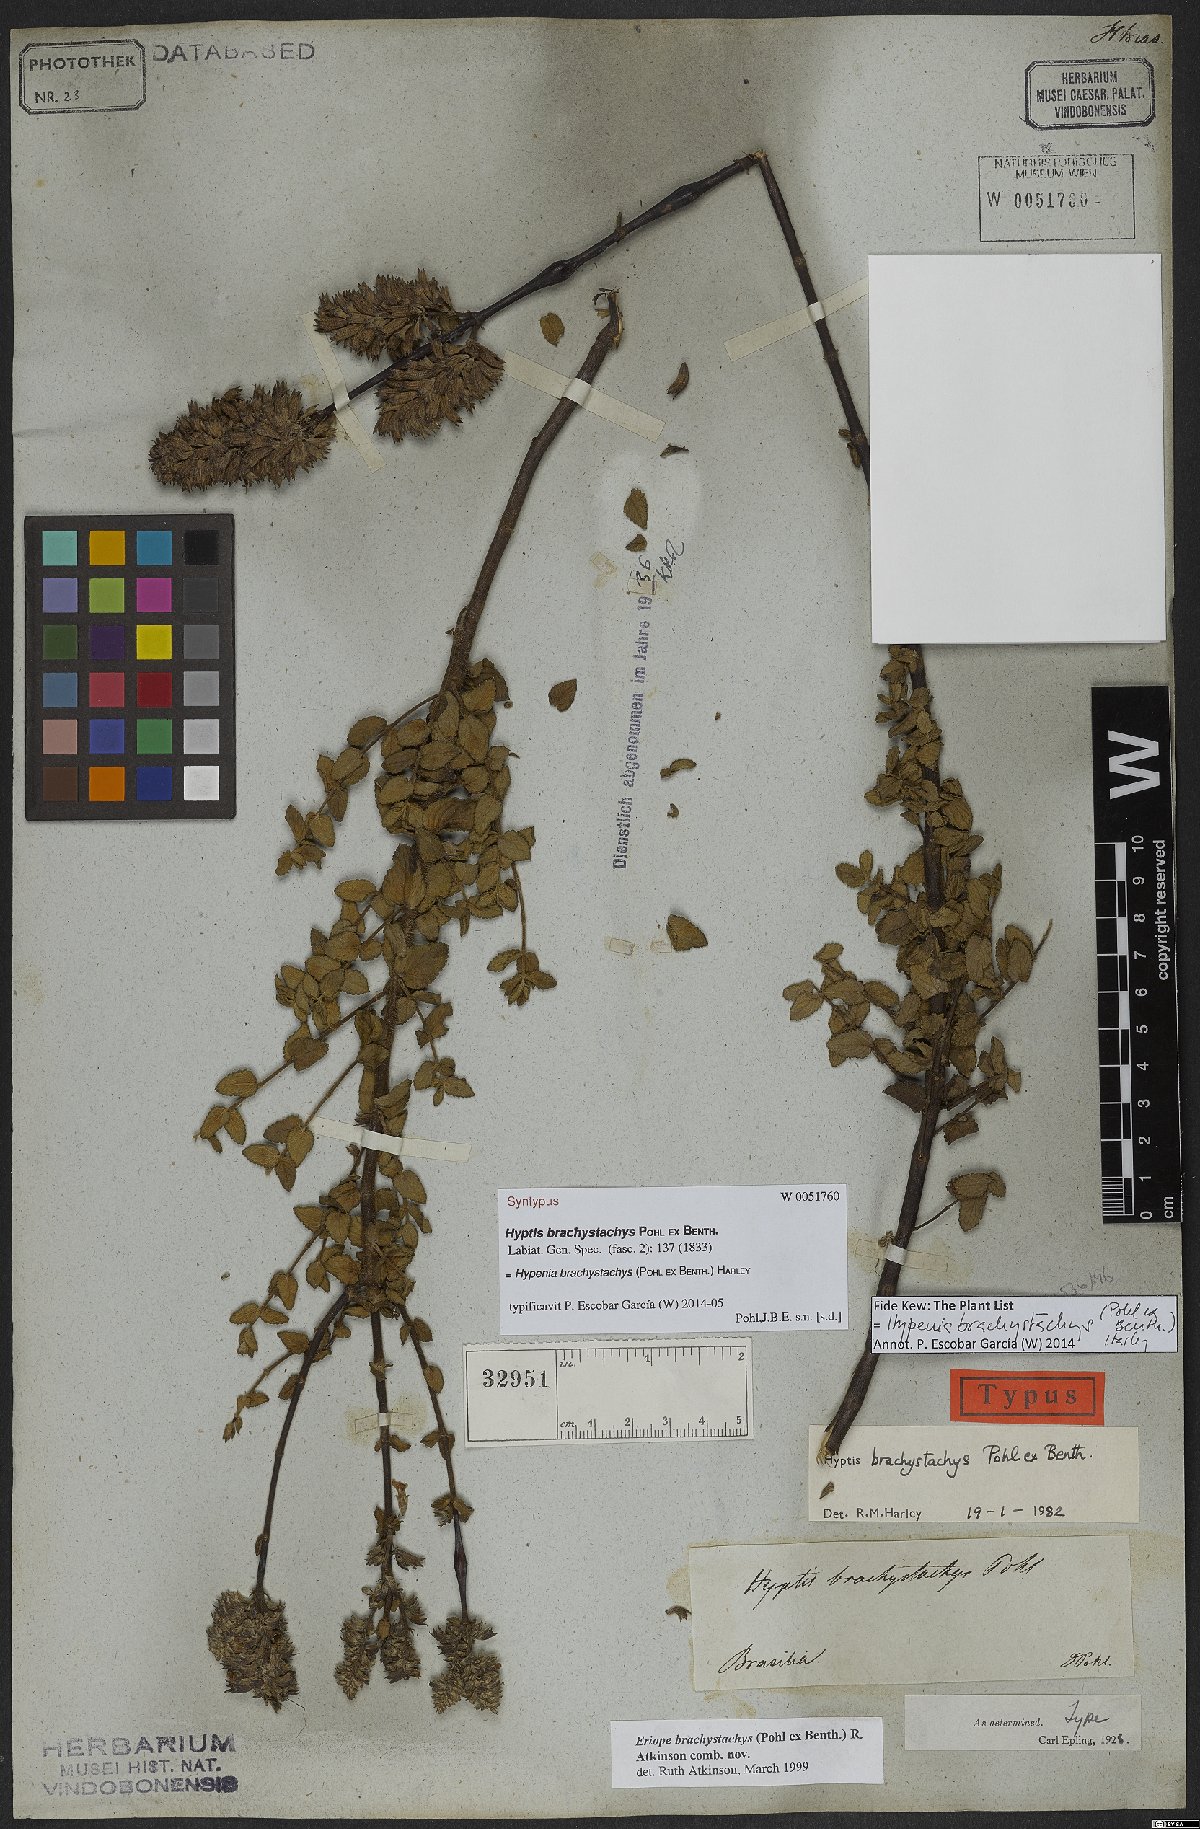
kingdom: Plantae
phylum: Tracheophyta
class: Magnoliopsida
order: Lamiales
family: Lamiaceae
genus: Hypenia
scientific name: Hypenia brachystachys
